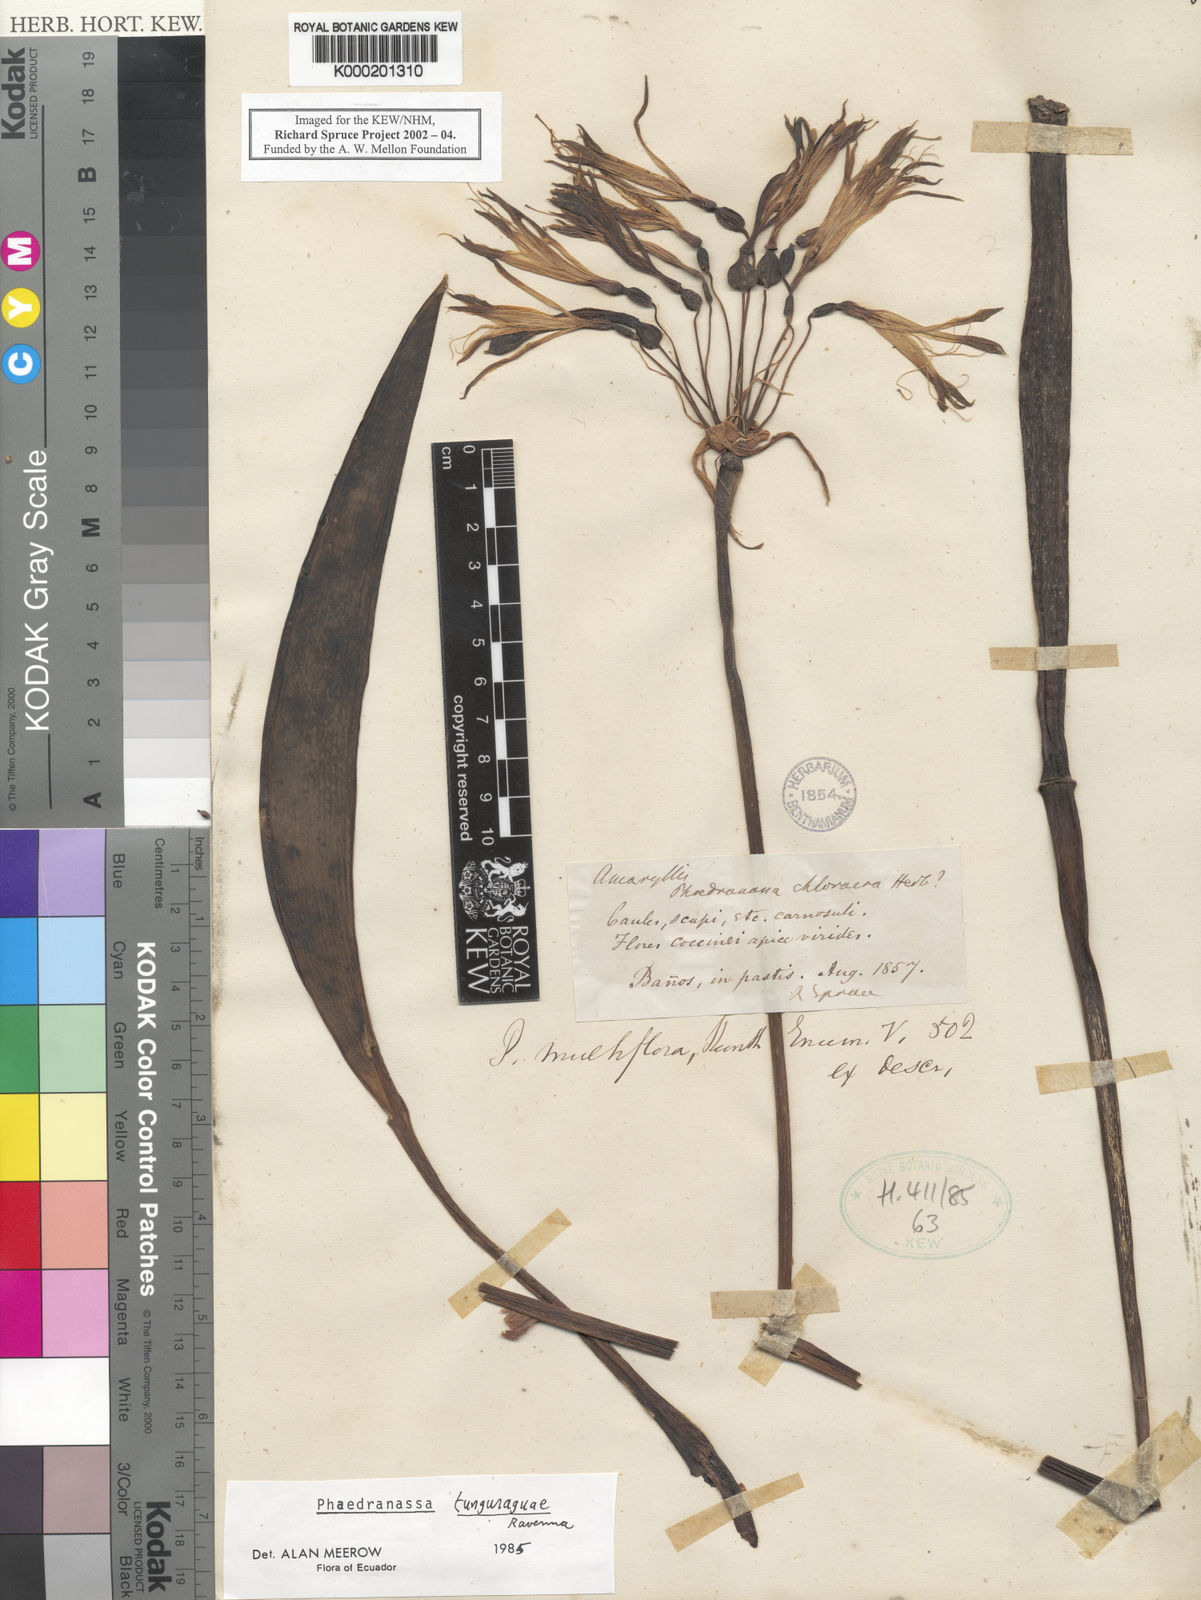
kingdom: Plantae
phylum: Tracheophyta
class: Liliopsida
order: Asparagales
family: Amaryllidaceae
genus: Phaedranassa
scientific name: Phaedranassa tunguraguae
